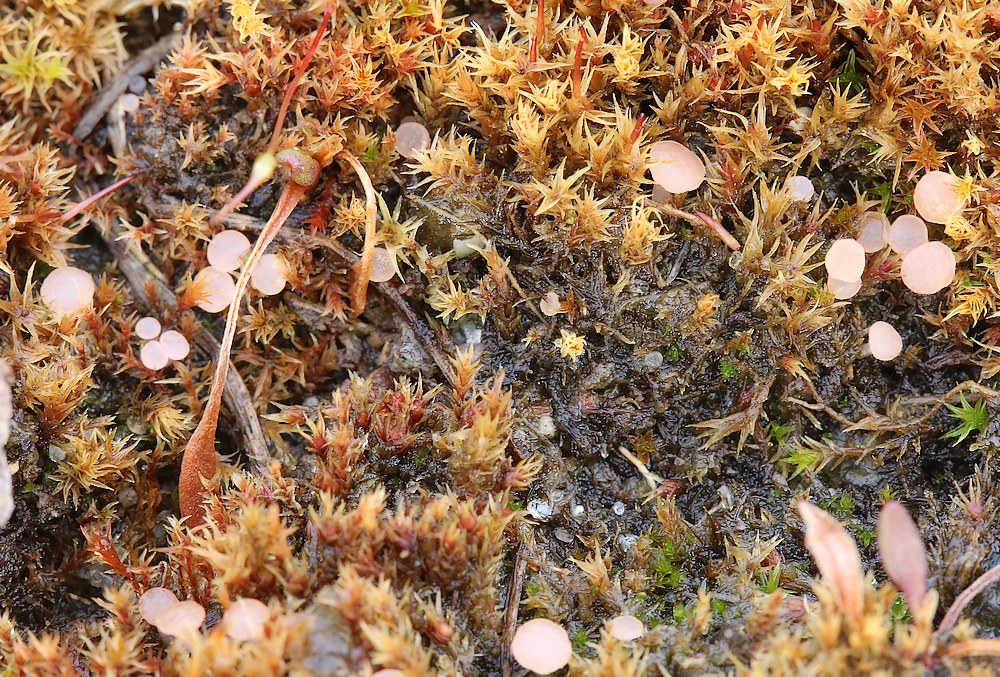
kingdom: Fungi
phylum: Ascomycota
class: Leotiomycetes
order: Helotiales
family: Hyaloscyphaceae
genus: Roseodiscus
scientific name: Roseodiscus formosus
